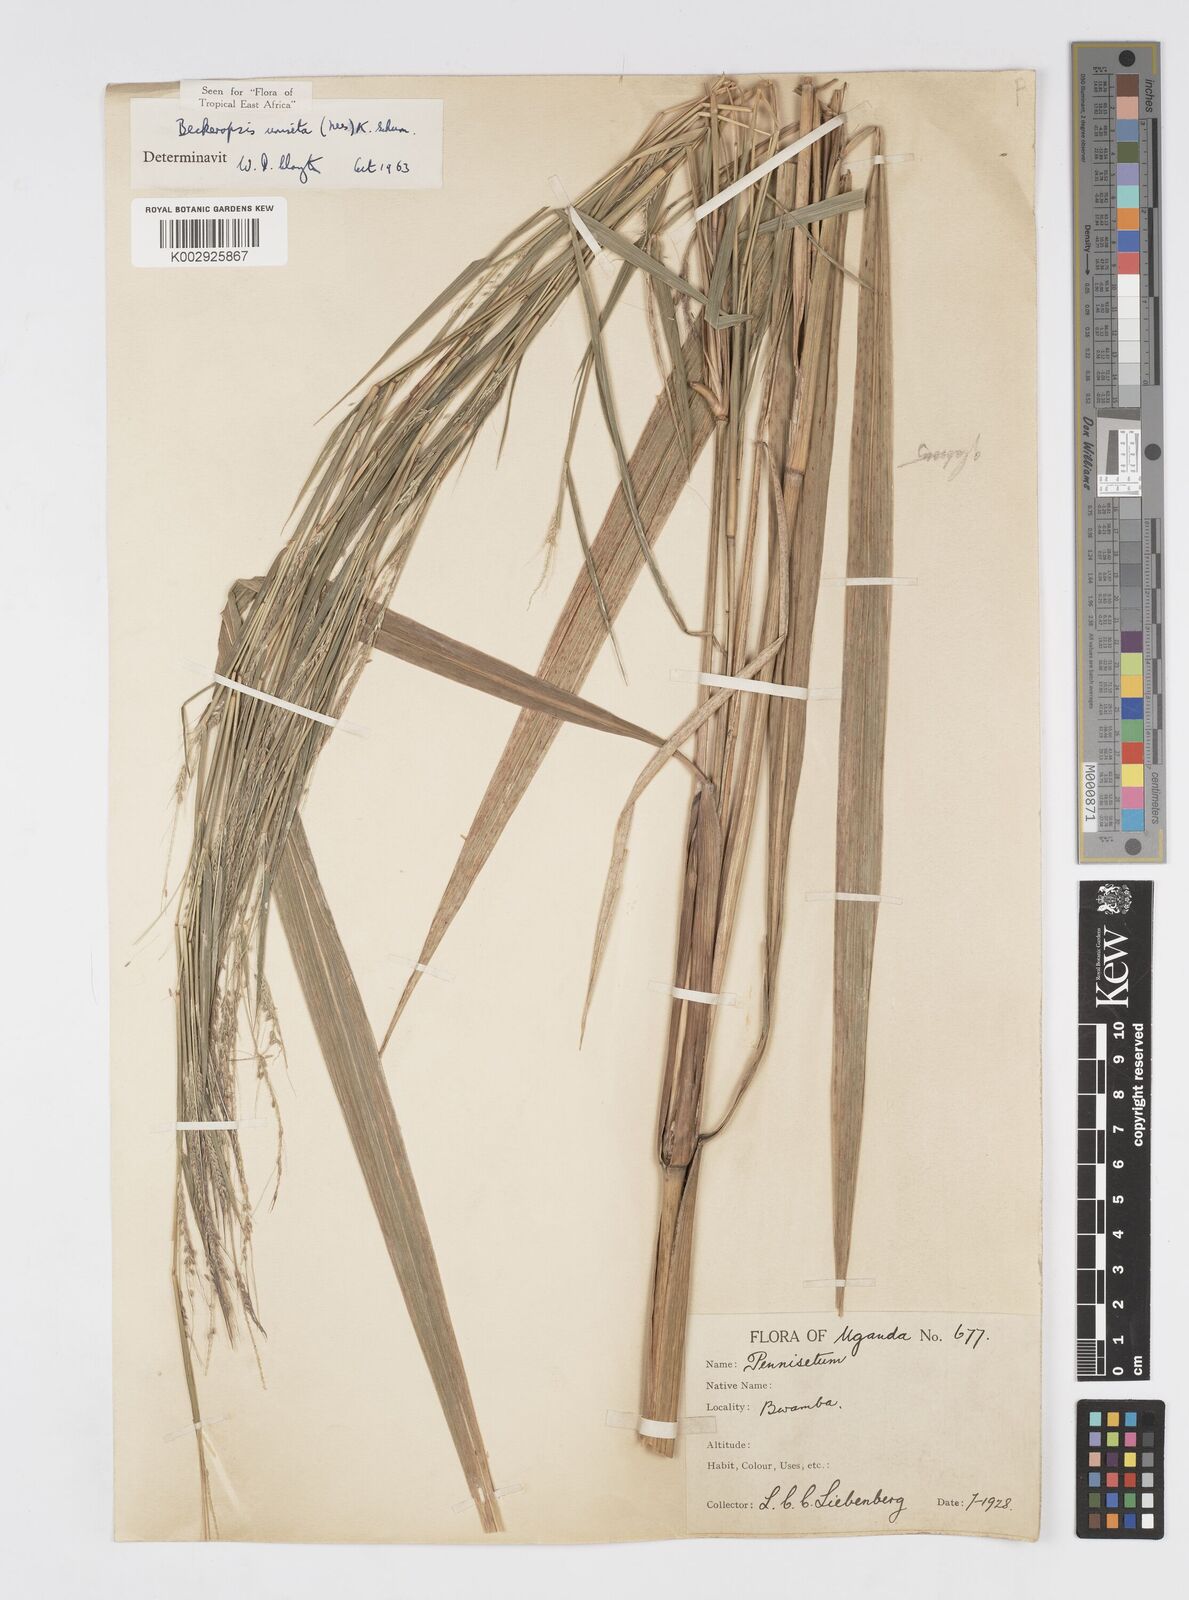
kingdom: Plantae
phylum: Tracheophyta
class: Liliopsida
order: Poales
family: Poaceae
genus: Cenchrus
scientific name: Cenchrus unisetus
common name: Natal grass
